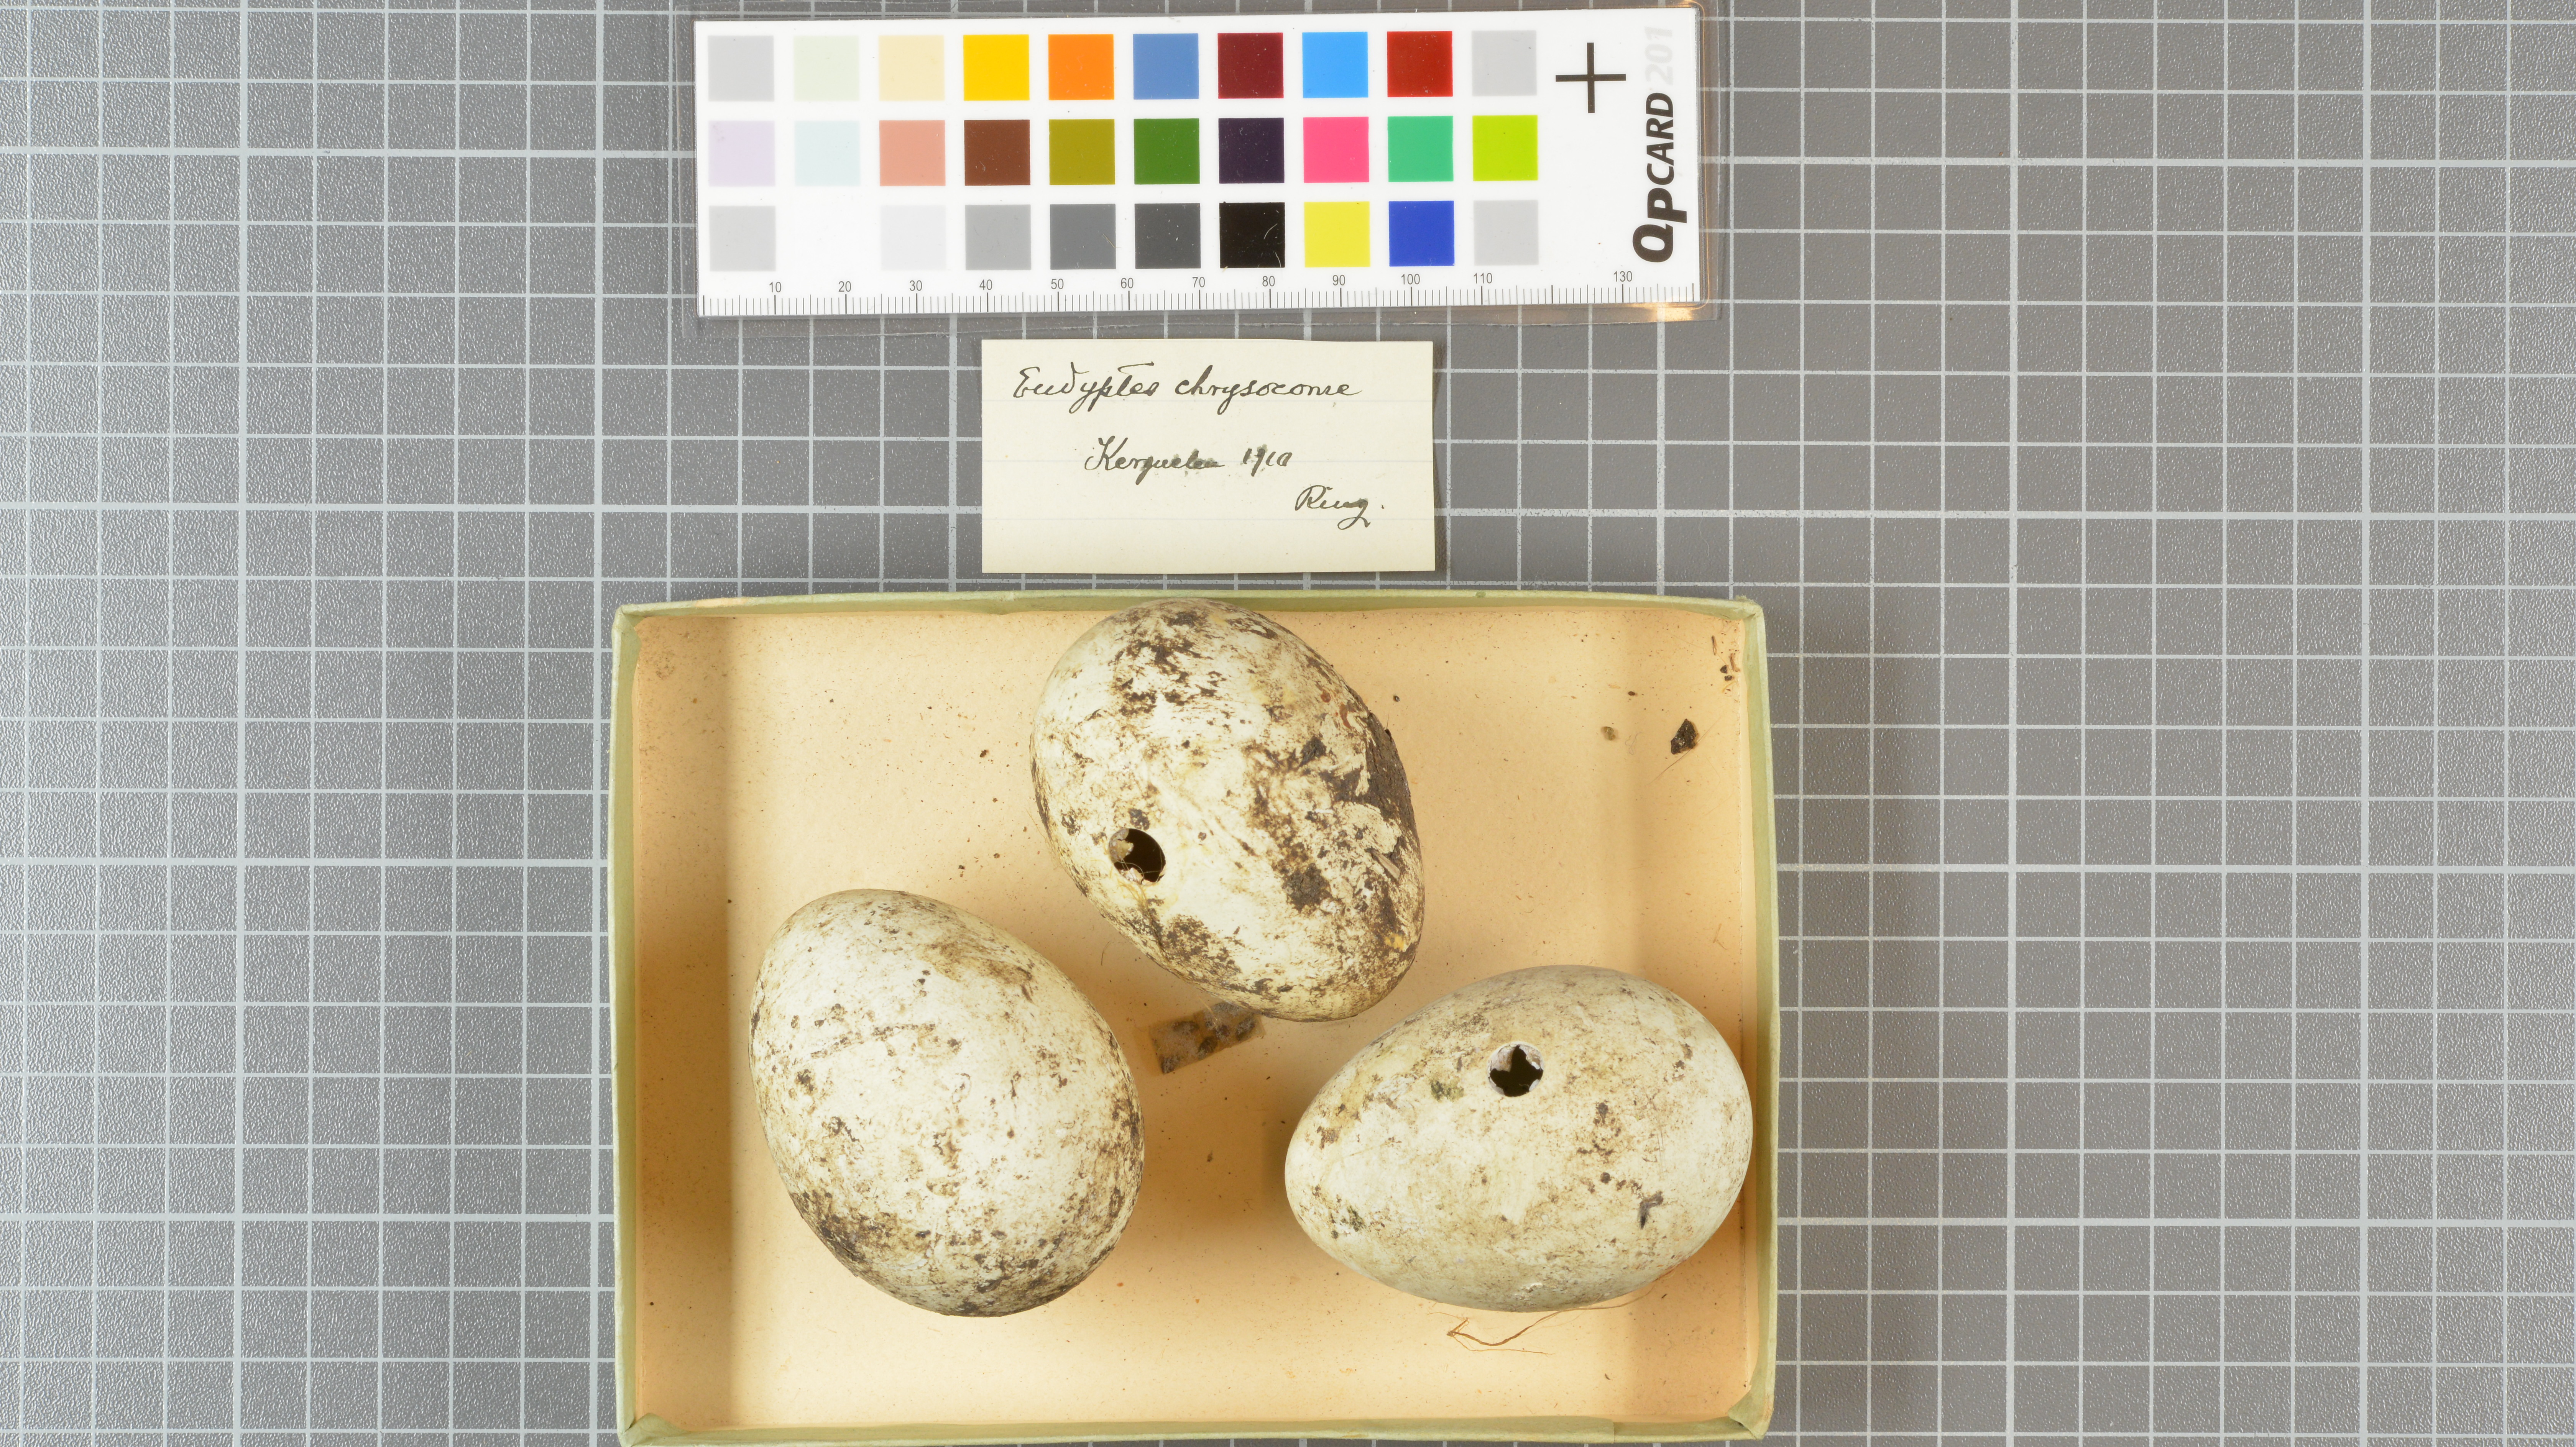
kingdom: Animalia
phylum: Chordata
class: Aves
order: Sphenisciformes
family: Spheniscidae
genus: Eudyptes
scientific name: Eudyptes chrysocome
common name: Southern rockhopper penguin
